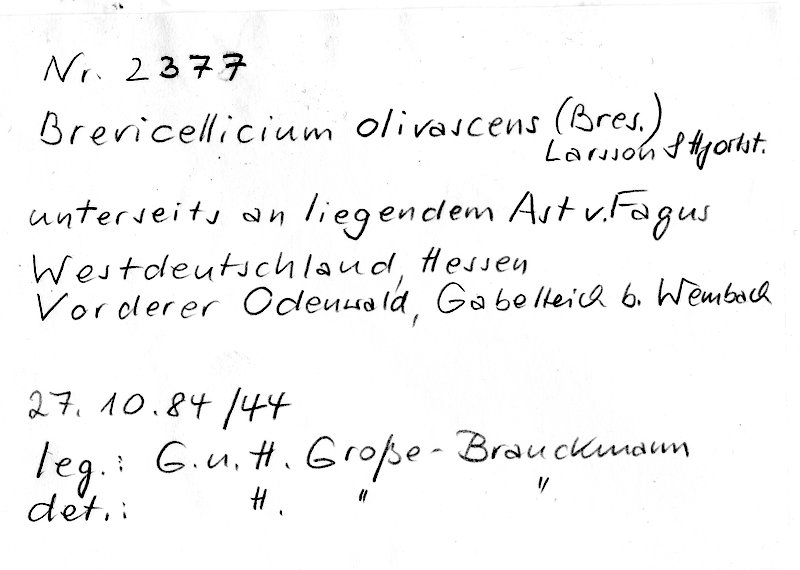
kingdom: Fungi
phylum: Basidiomycota
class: Agaricomycetes
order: Trechisporales
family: Hydnodontaceae
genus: Brevicellicium
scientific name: Brevicellicium olivascens
